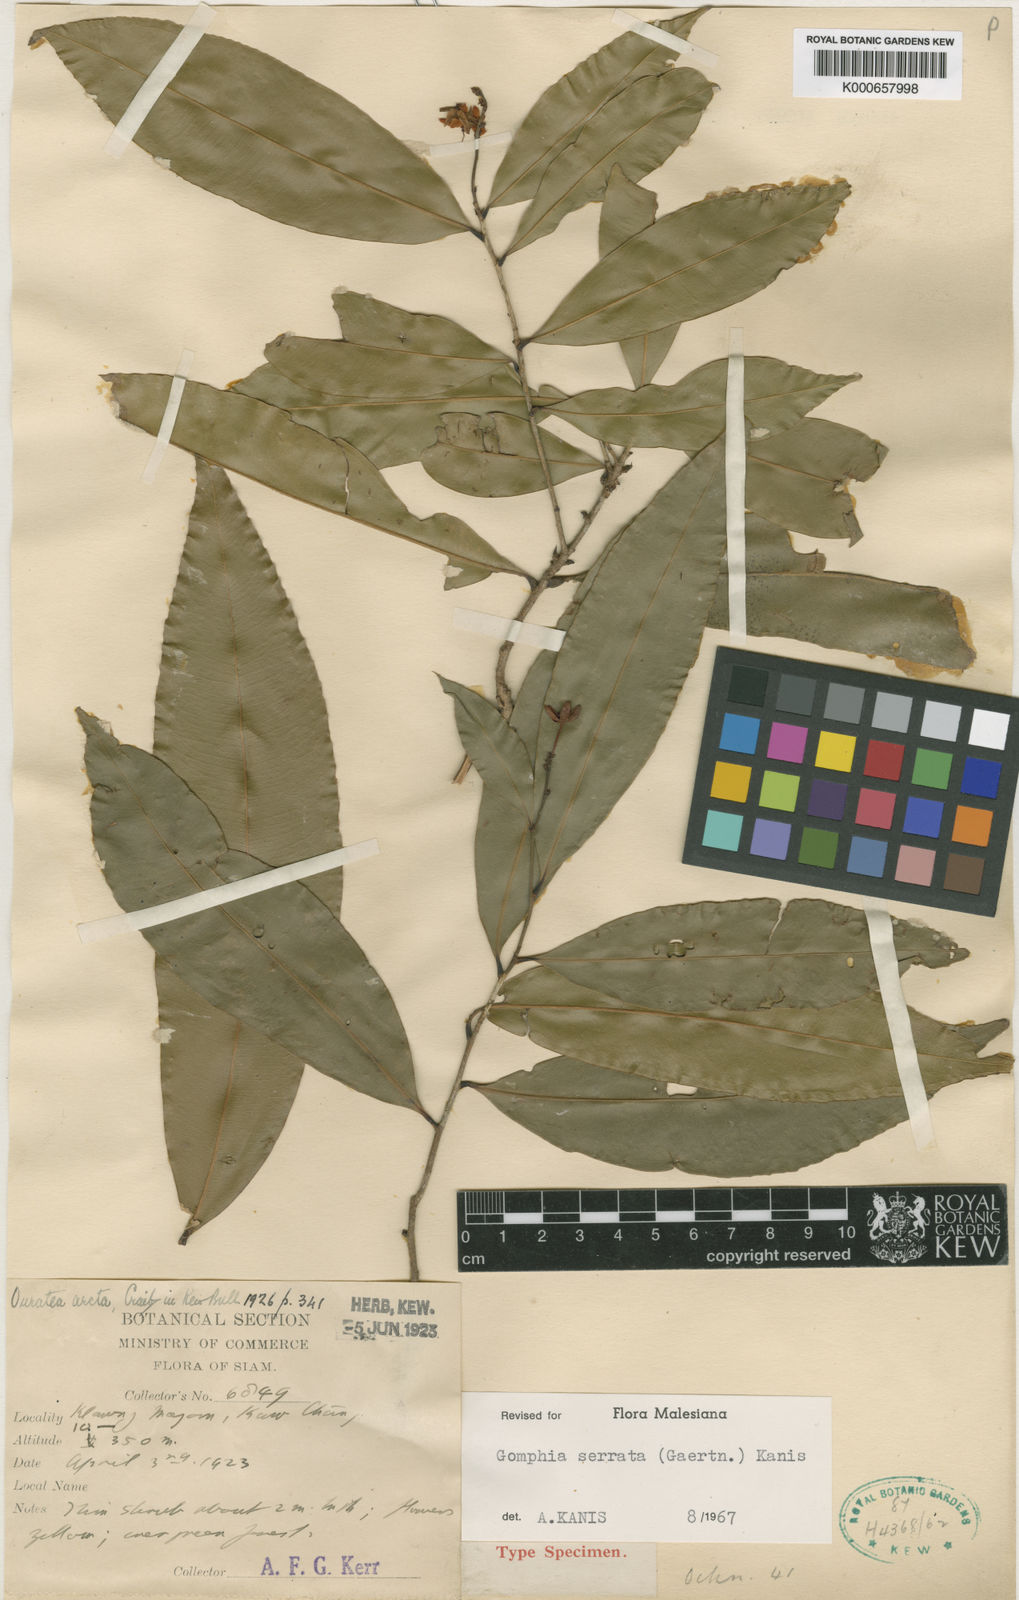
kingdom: Plantae
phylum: Tracheophyta
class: Magnoliopsida
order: Malpighiales
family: Ochnaceae
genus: Gomphia
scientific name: Gomphia serrata
